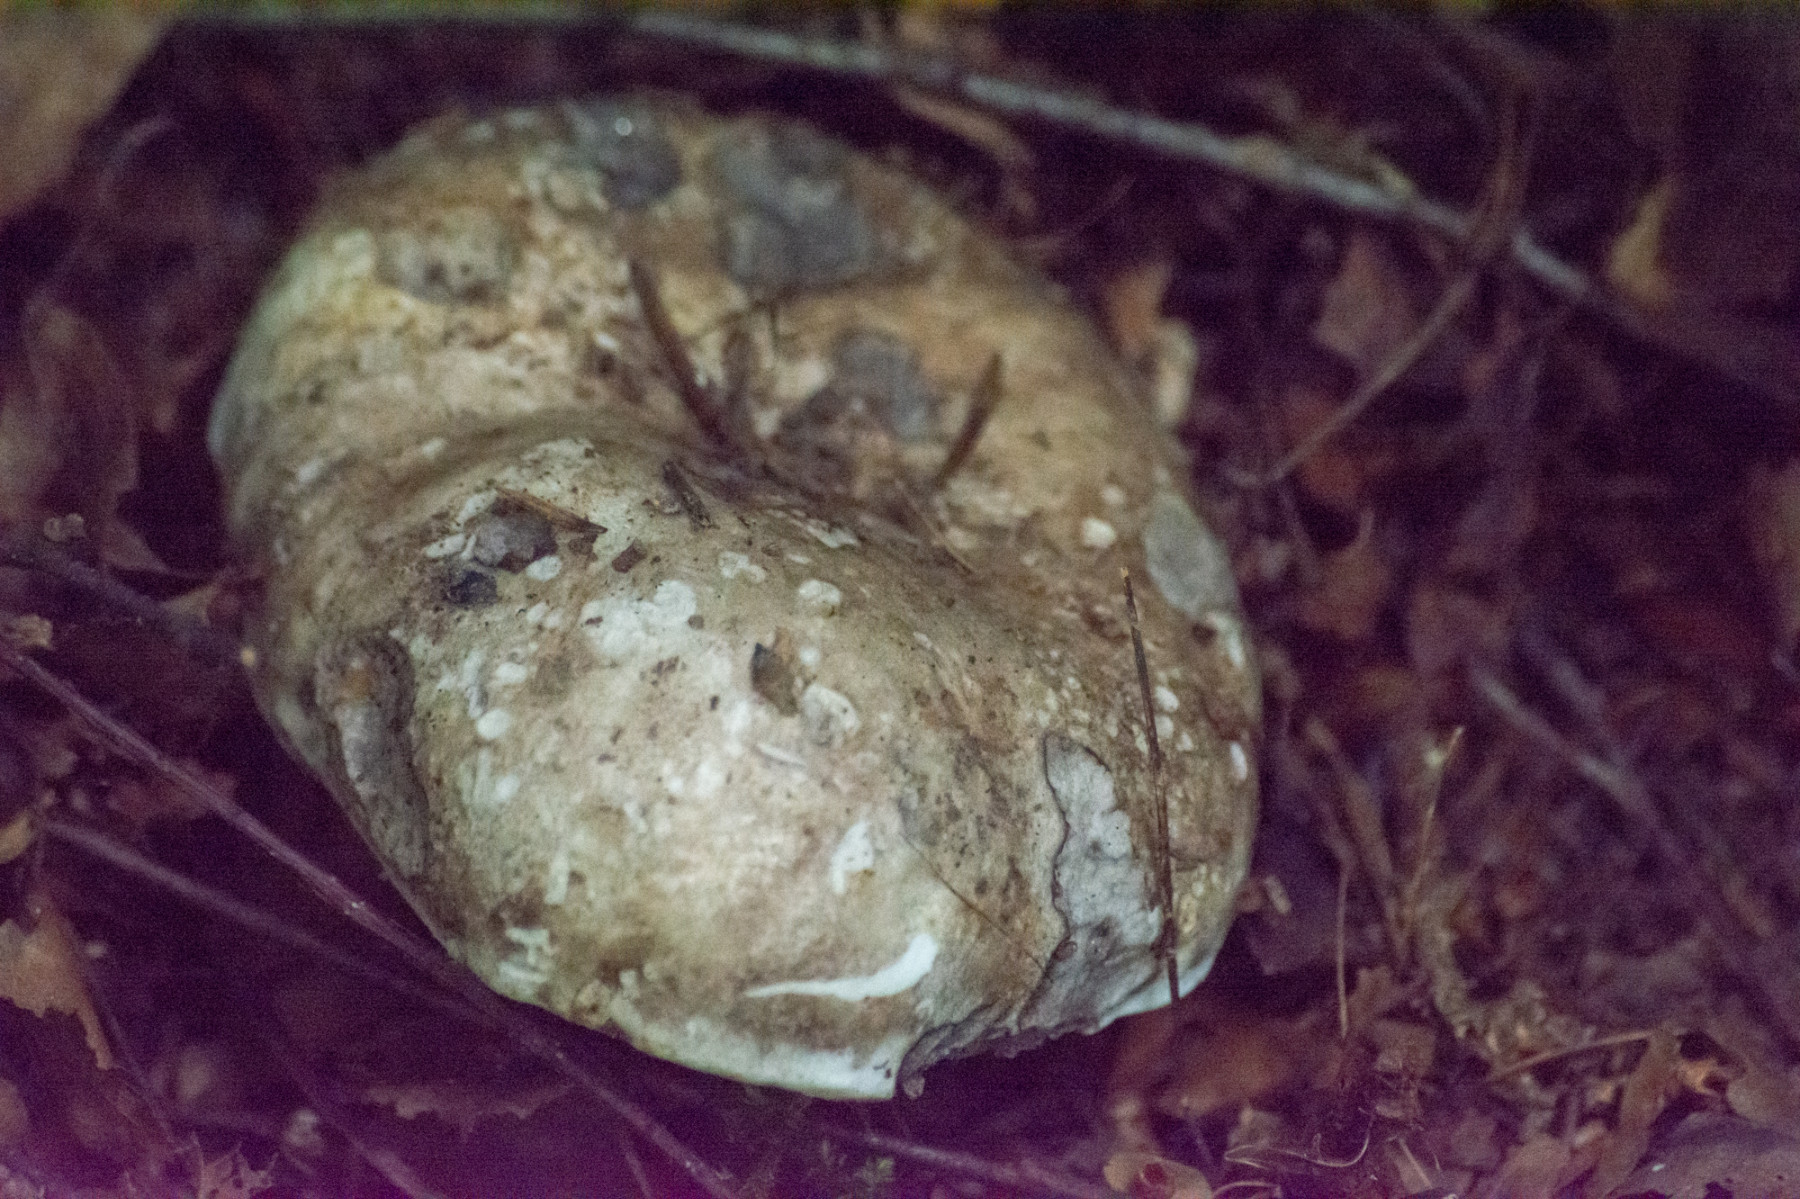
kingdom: Fungi
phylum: Basidiomycota
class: Agaricomycetes
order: Russulales
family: Russulaceae
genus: Russula
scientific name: Russula
